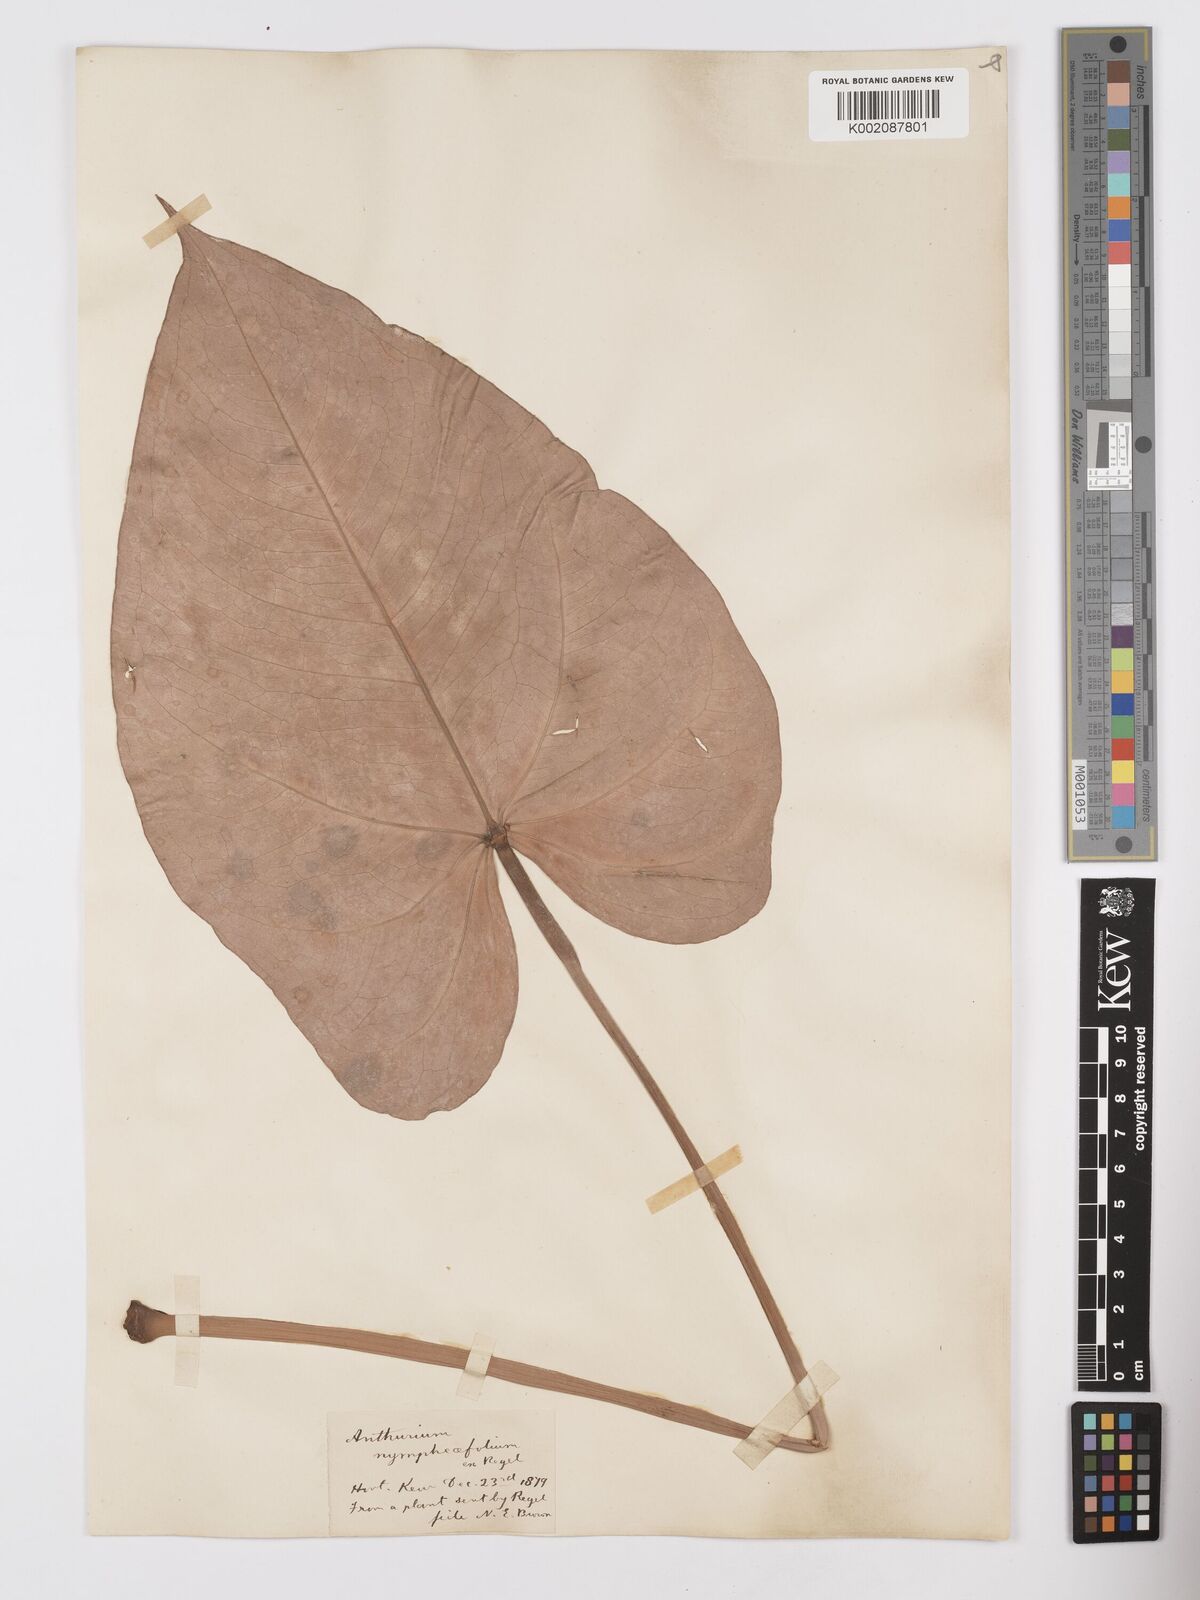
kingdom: Plantae
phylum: Tracheophyta
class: Liliopsida
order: Alismatales
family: Araceae
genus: Anthurium
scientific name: Anthurium nymphaeifolium
